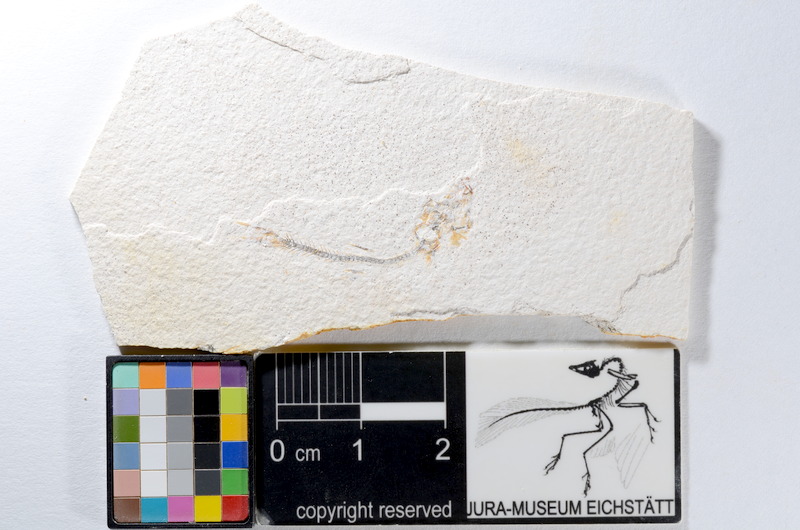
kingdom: Animalia
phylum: Chordata
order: Salmoniformes
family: Orthogonikleithridae
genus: Orthogonikleithrus
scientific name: Orthogonikleithrus hoelli
